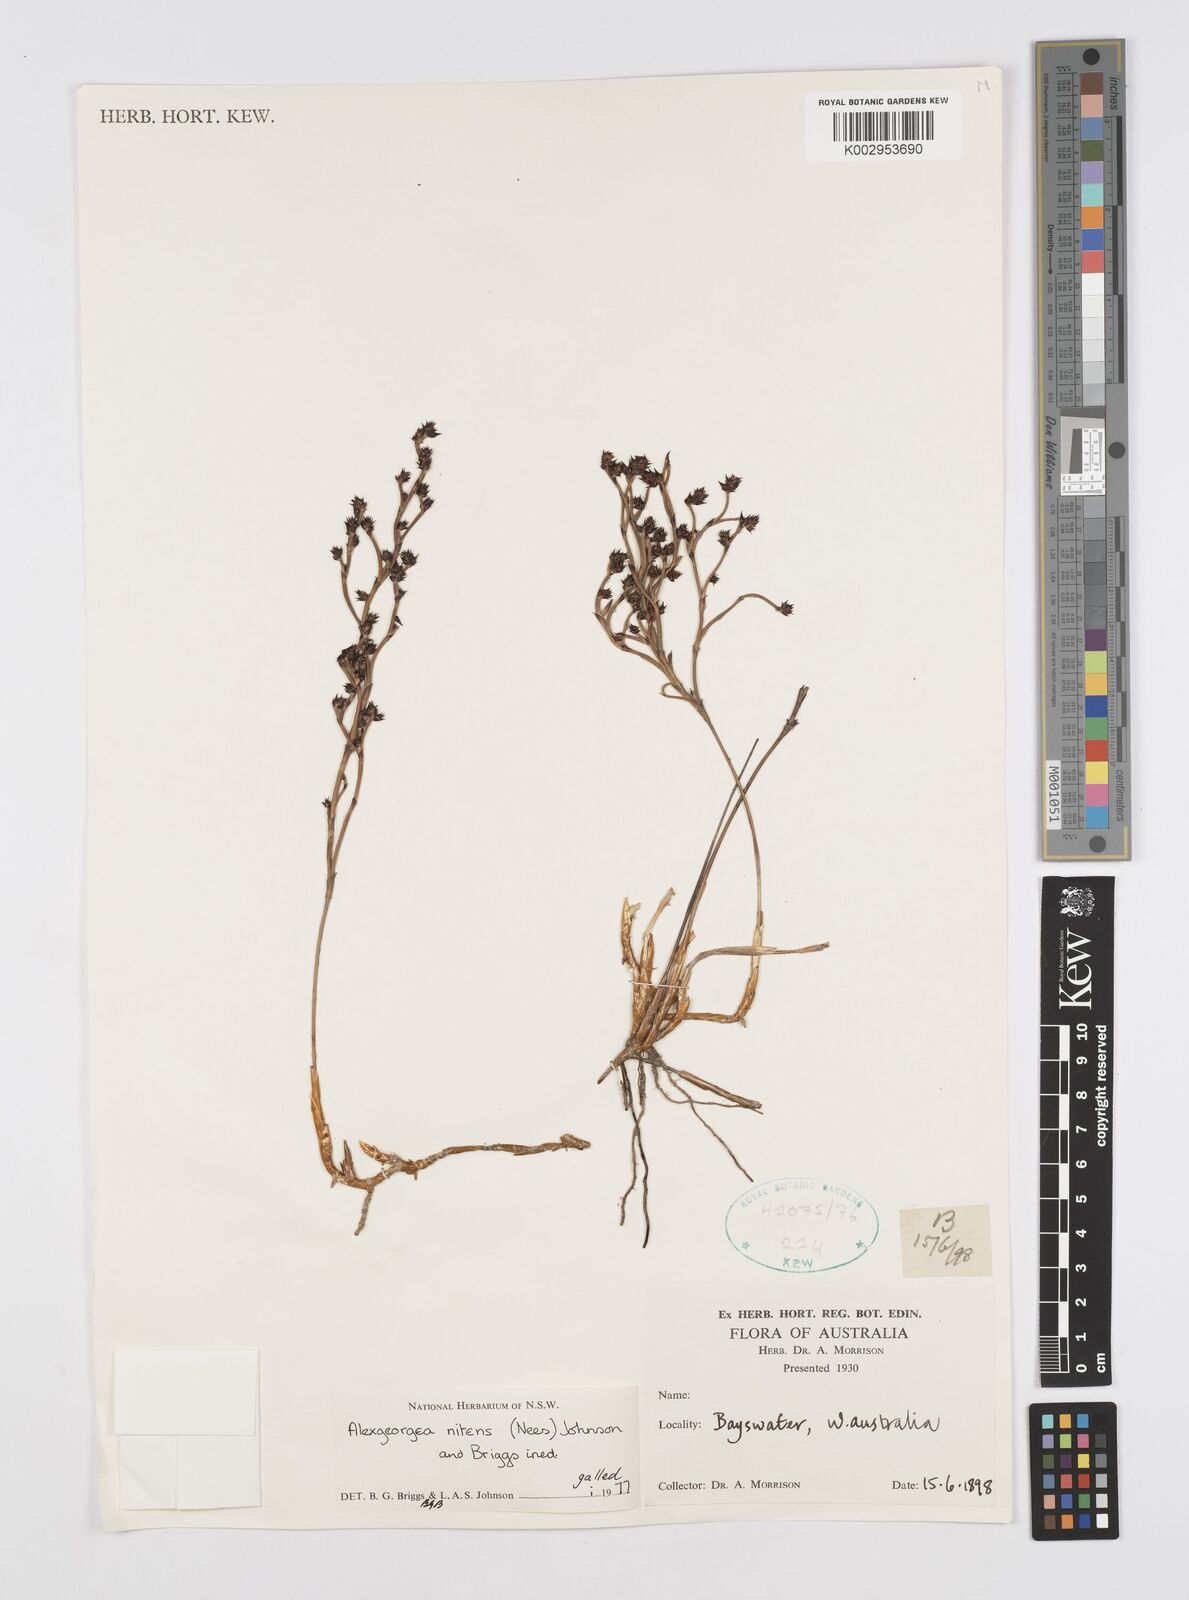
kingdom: Plantae
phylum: Tracheophyta
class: Liliopsida
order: Poales
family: Restionaceae
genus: Alexgeorgea
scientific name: Alexgeorgea nitens
